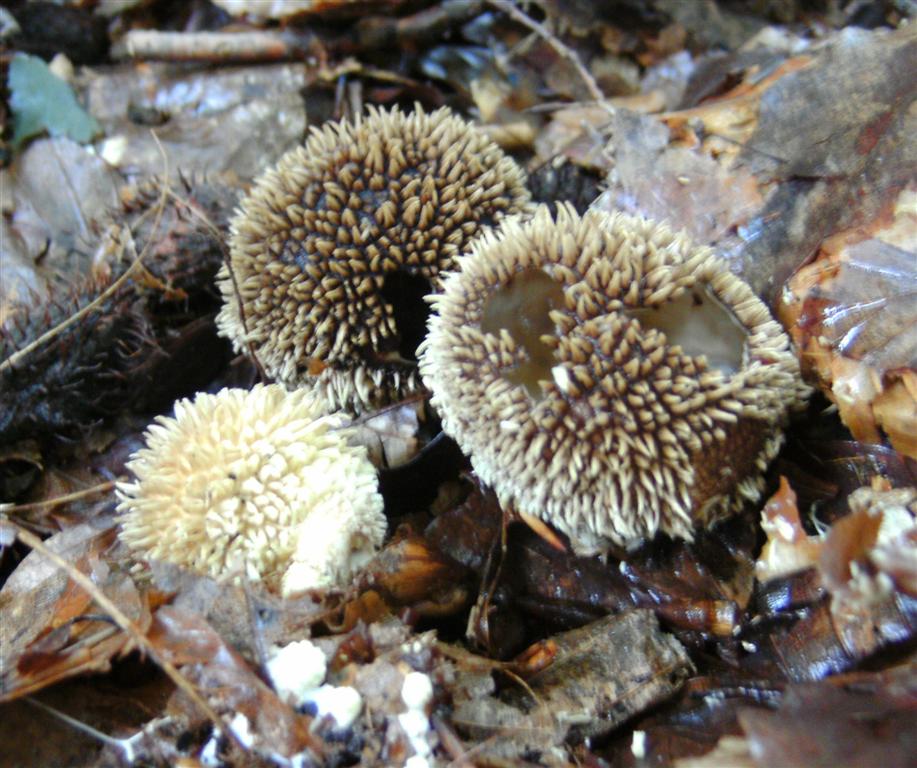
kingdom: Fungi
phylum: Basidiomycota
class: Agaricomycetes
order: Agaricales
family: Lycoperdaceae
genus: Lycoperdon
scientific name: Lycoperdon echinatum
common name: pindsvine-støvbold
